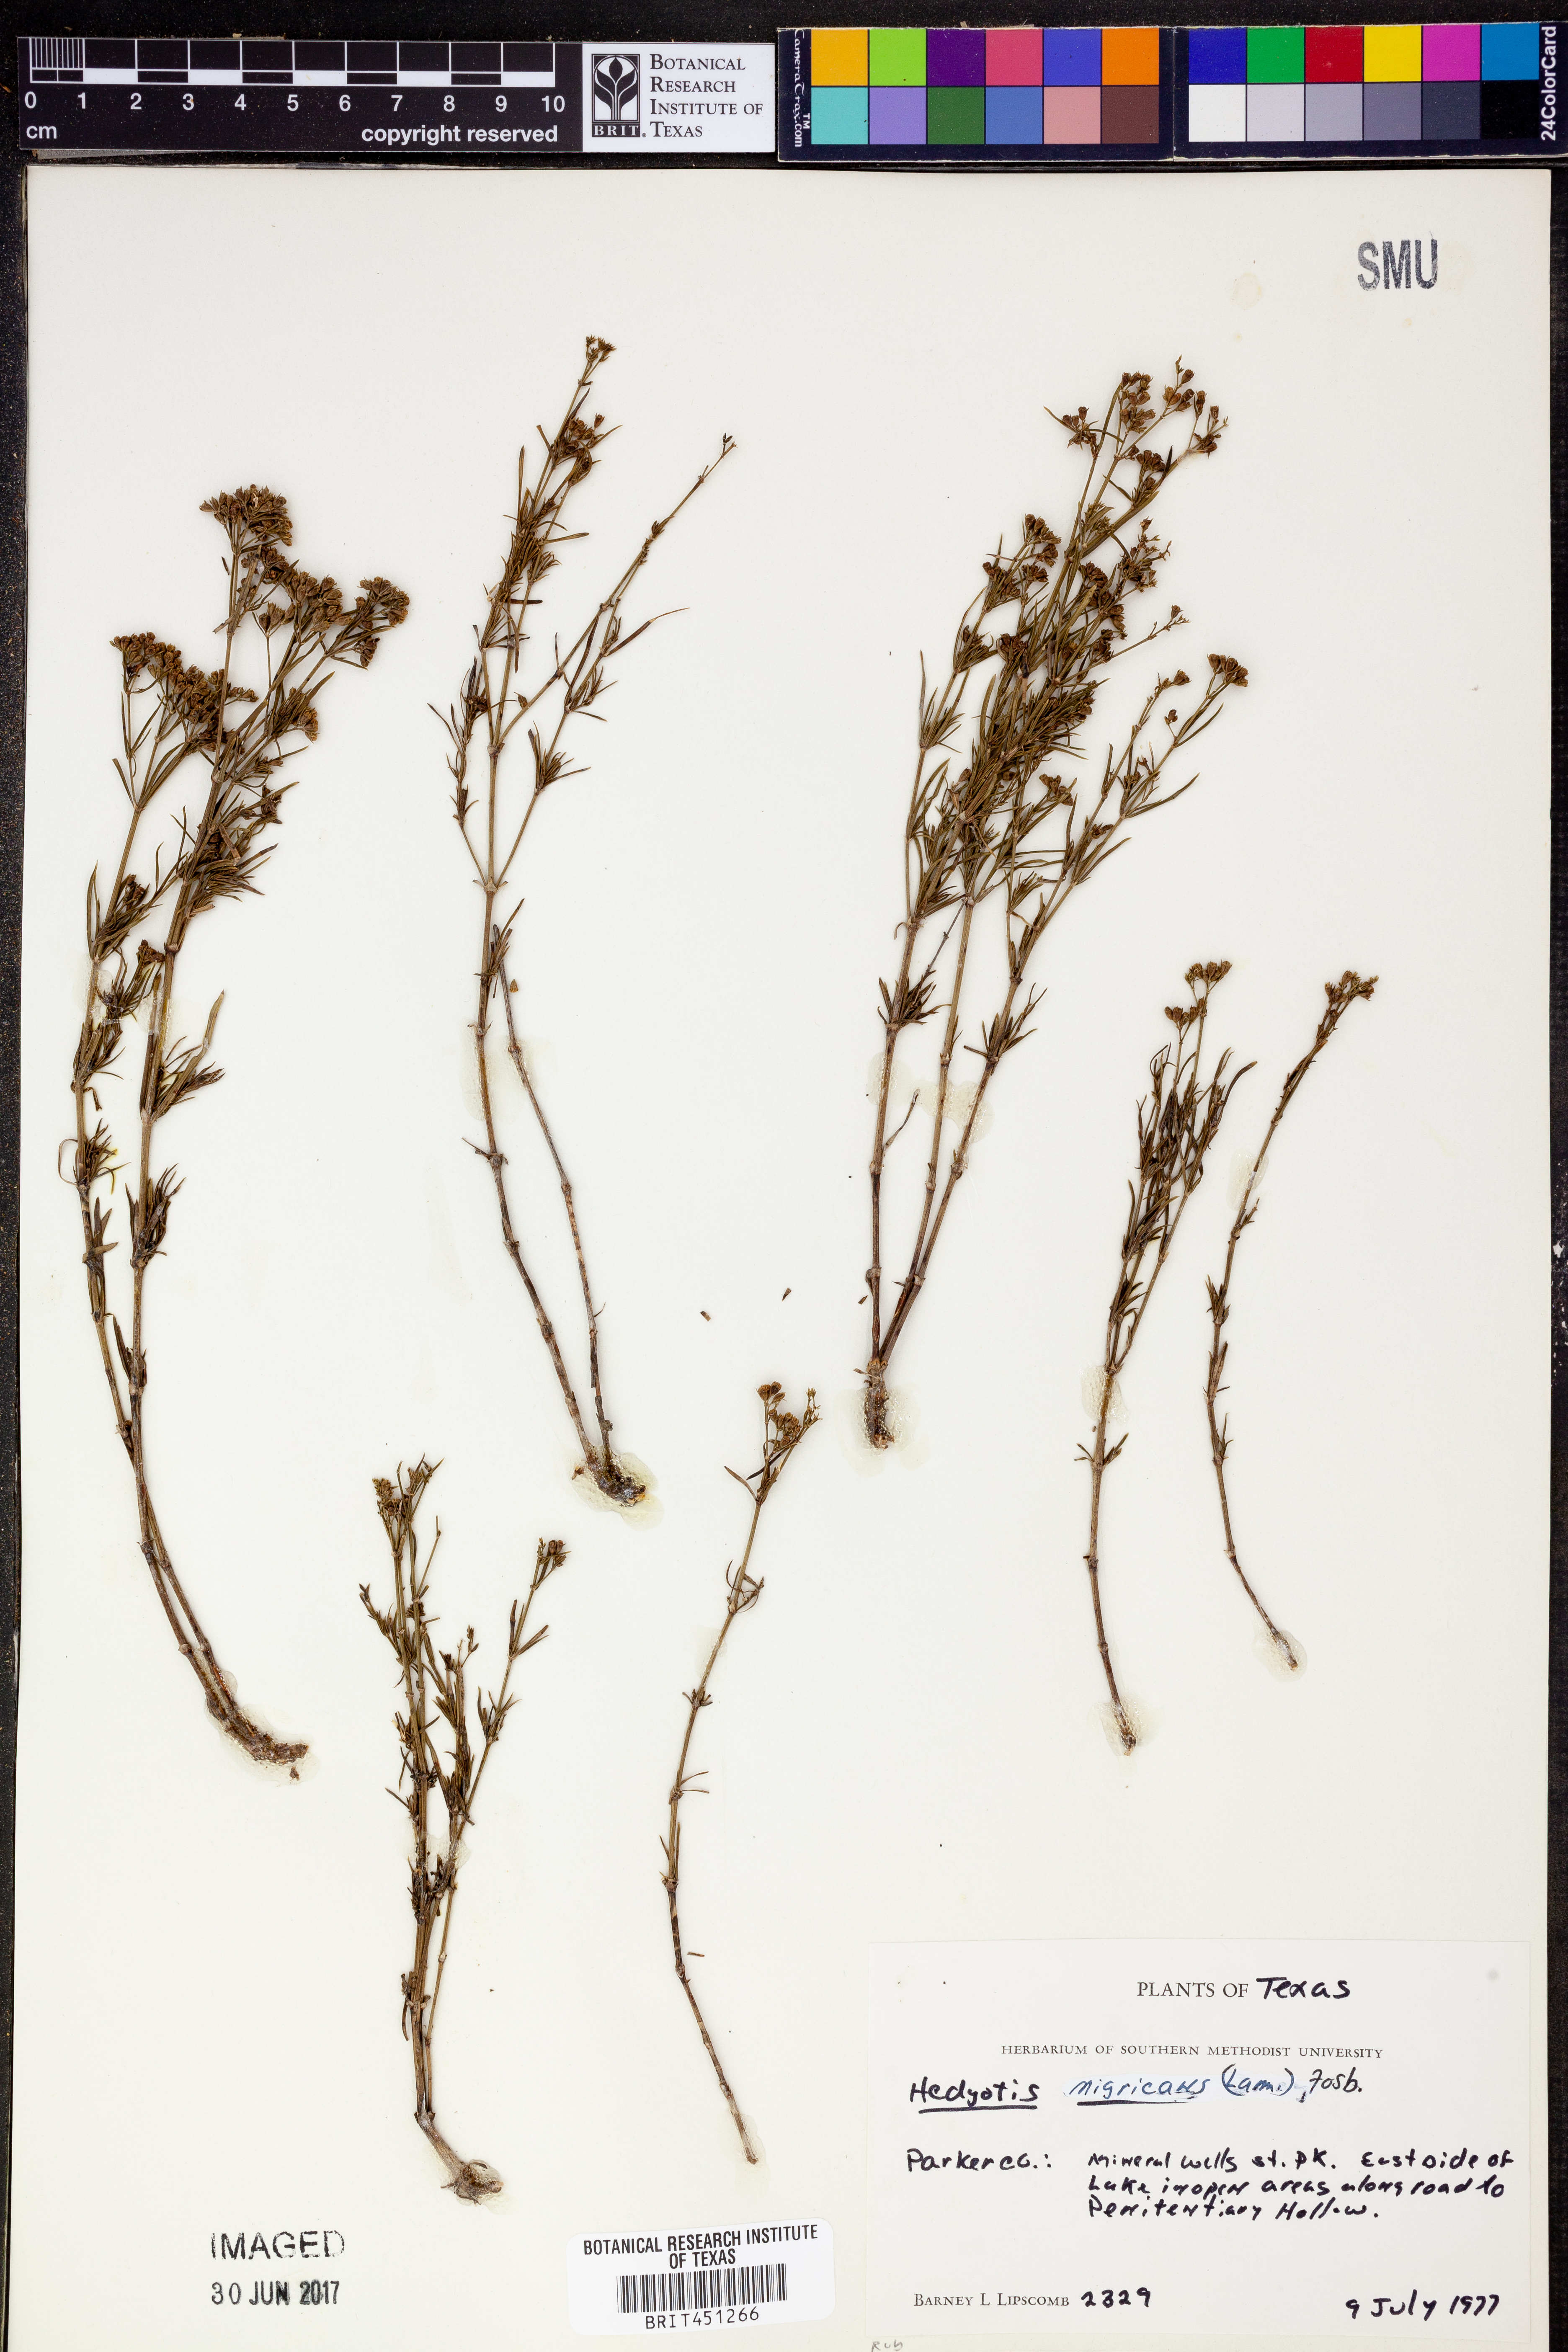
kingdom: Plantae
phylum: Tracheophyta
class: Magnoliopsida
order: Gentianales
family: Rubiaceae
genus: Stenaria
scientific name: Stenaria nigricans
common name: Diamondflowers
